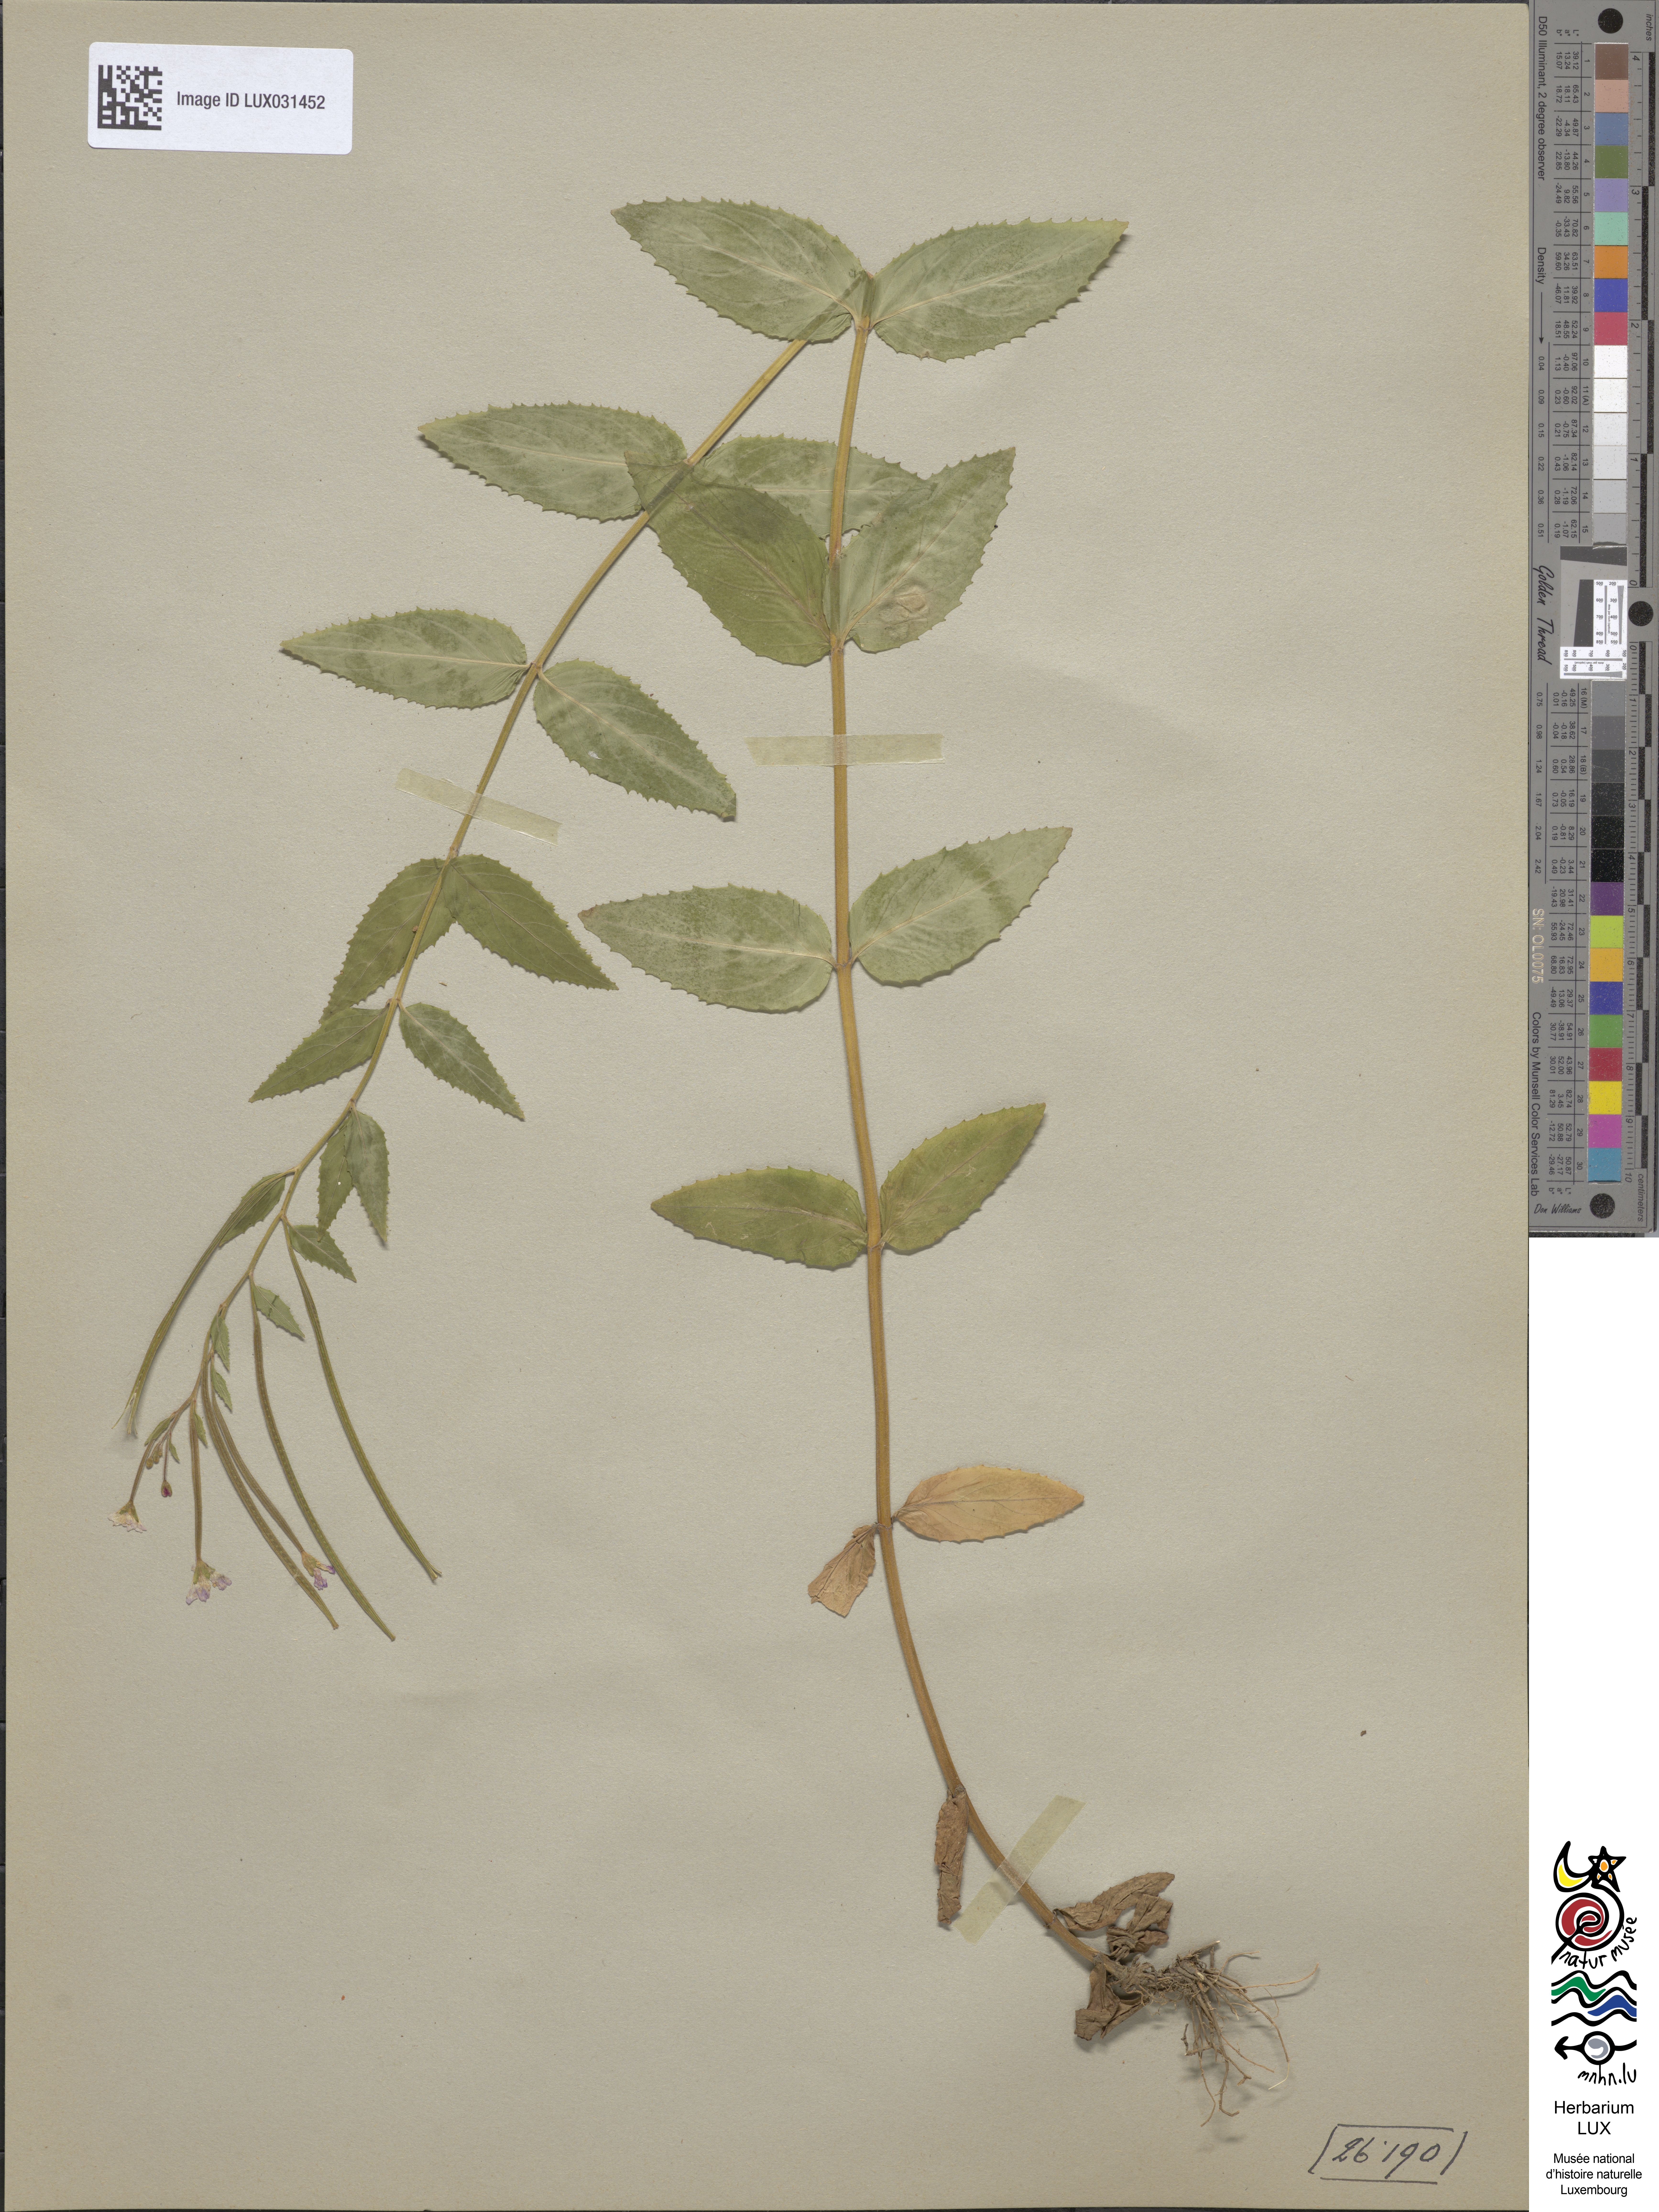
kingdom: Plantae
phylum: Tracheophyta
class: Magnoliopsida
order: Myrtales
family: Onagraceae
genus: Epilobium
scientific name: Epilobium montanum
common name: Broad-leaved willowherb
